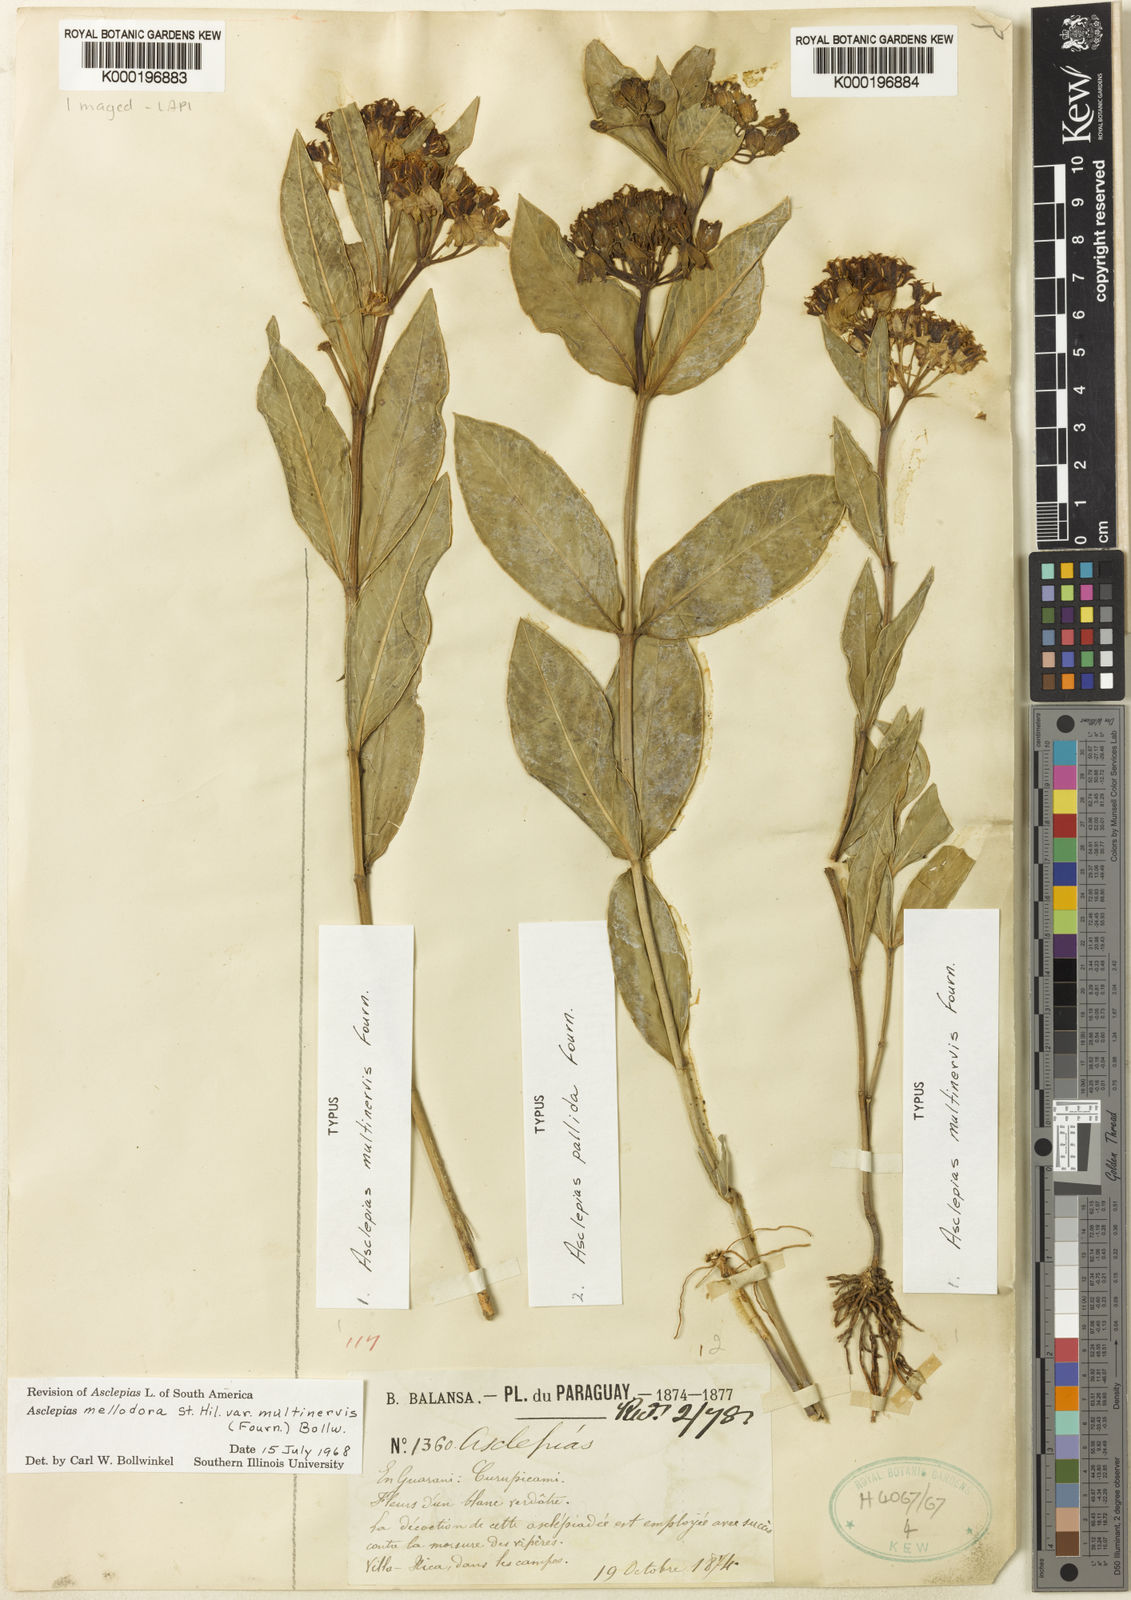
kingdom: Plantae
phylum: Tracheophyta
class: Magnoliopsida
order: Gentianales
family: Apocynaceae
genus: Asclepias
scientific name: Asclepias mellodora
